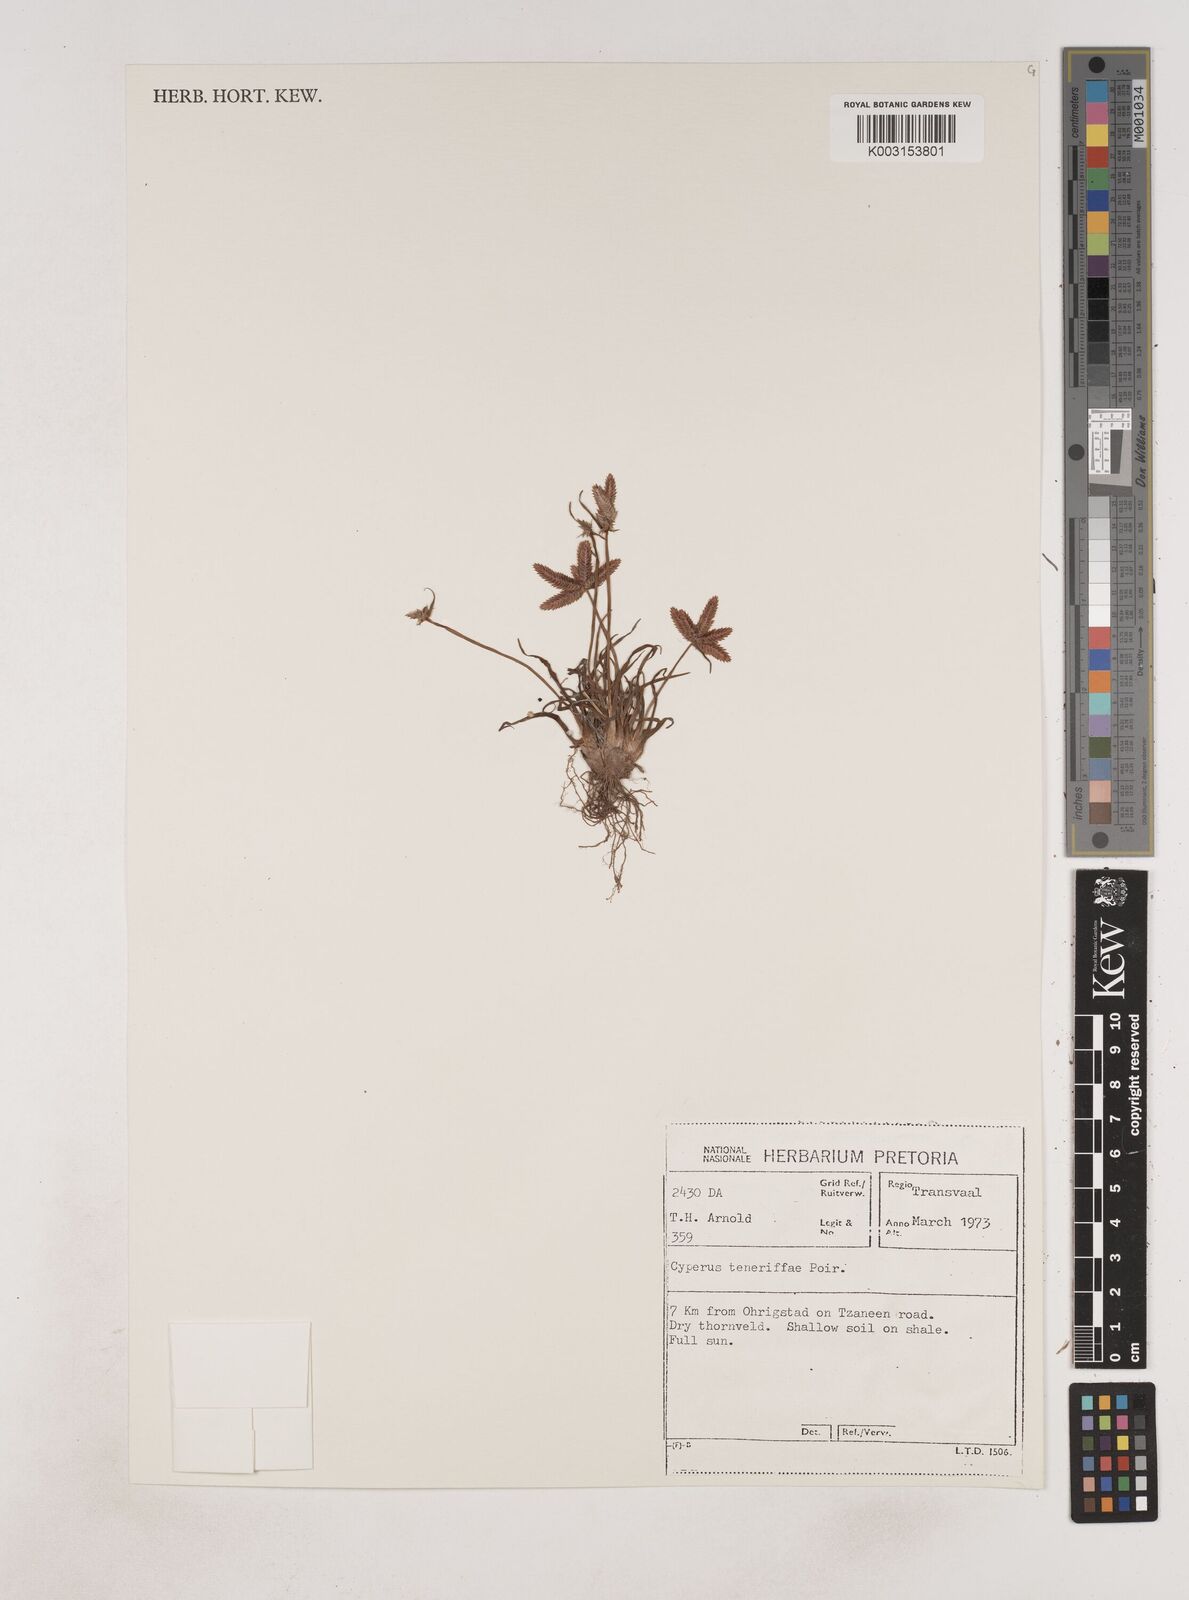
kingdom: Plantae
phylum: Tracheophyta
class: Liliopsida
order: Poales
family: Cyperaceae
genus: Cyperus
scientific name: Cyperus rubicundus
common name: Coco-grass
